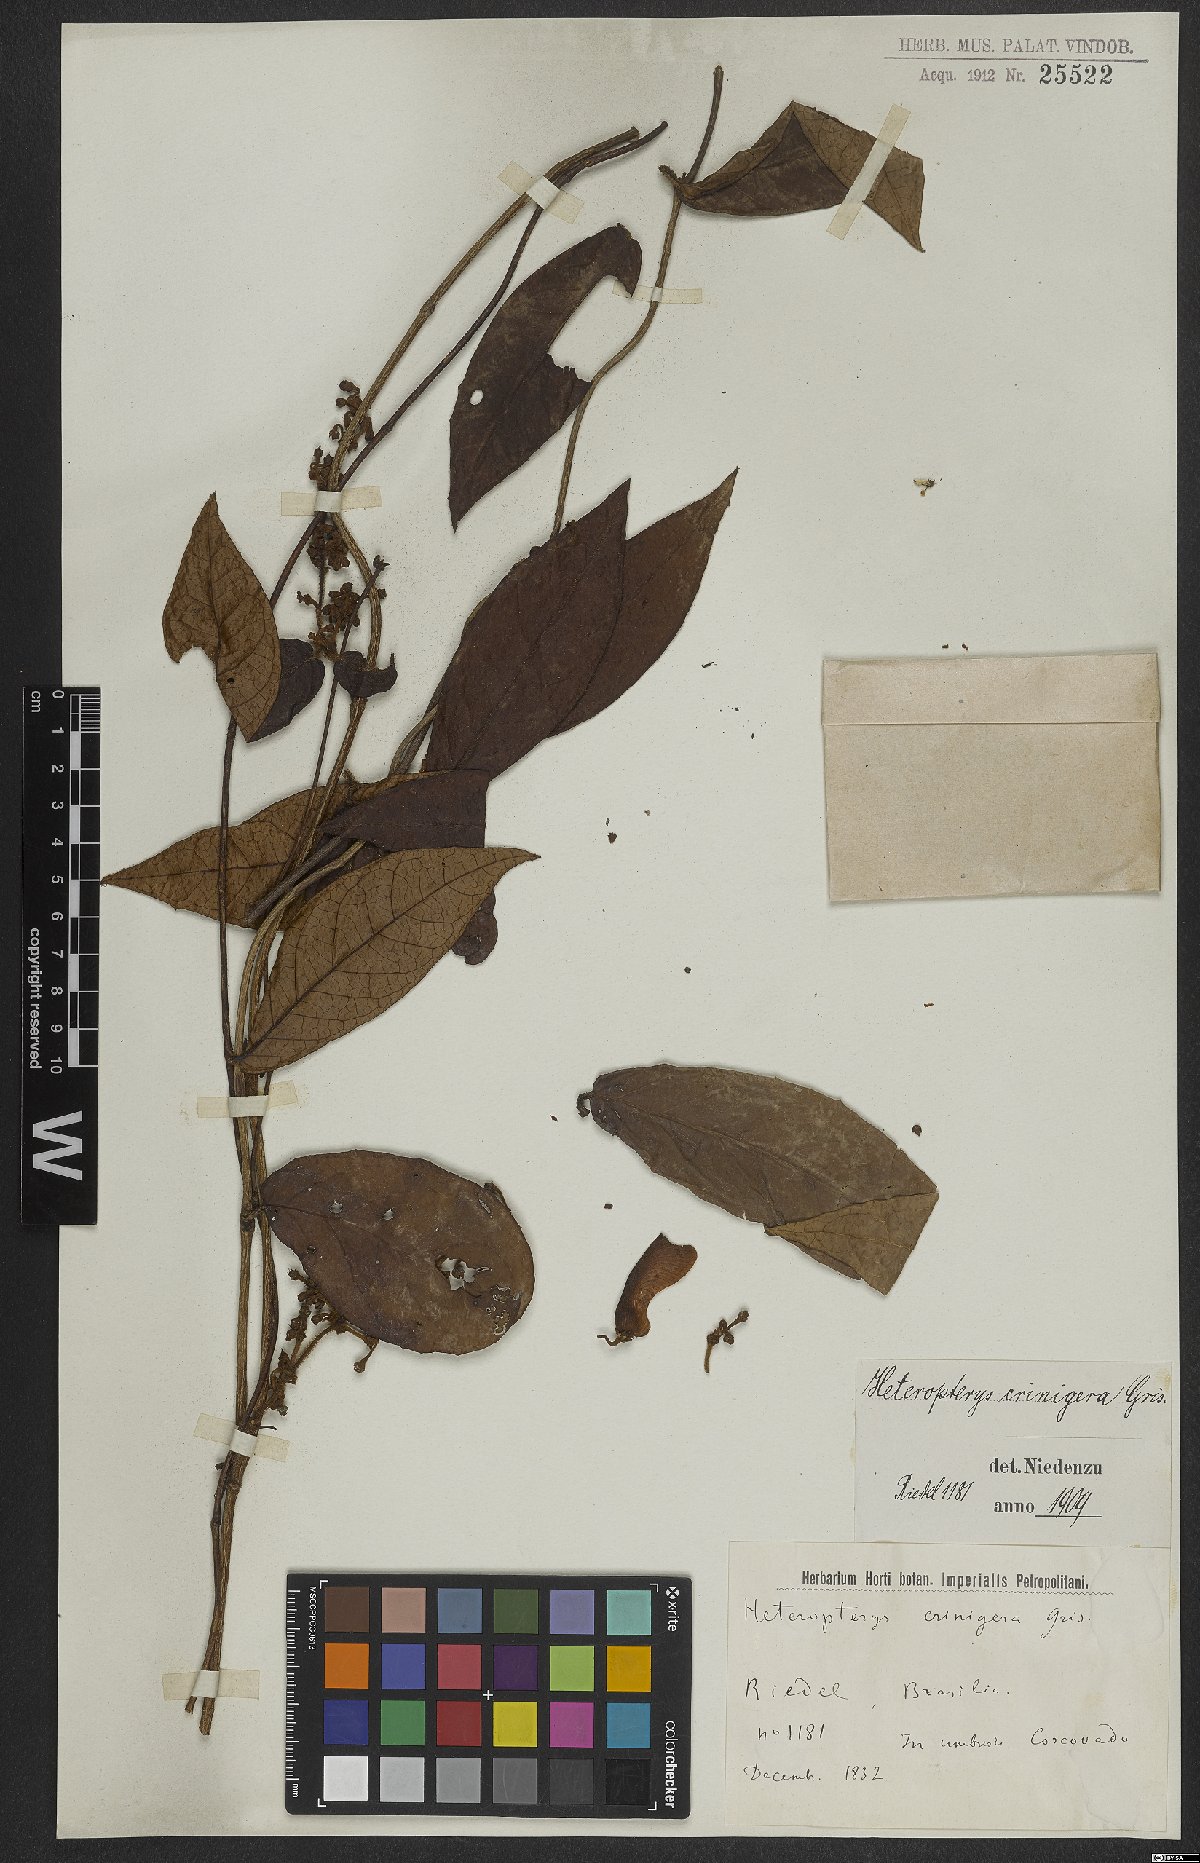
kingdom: Plantae
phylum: Tracheophyta
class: Magnoliopsida
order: Malpighiales
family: Malpighiaceae
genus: Heteropterys
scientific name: Heteropterys crinigera
